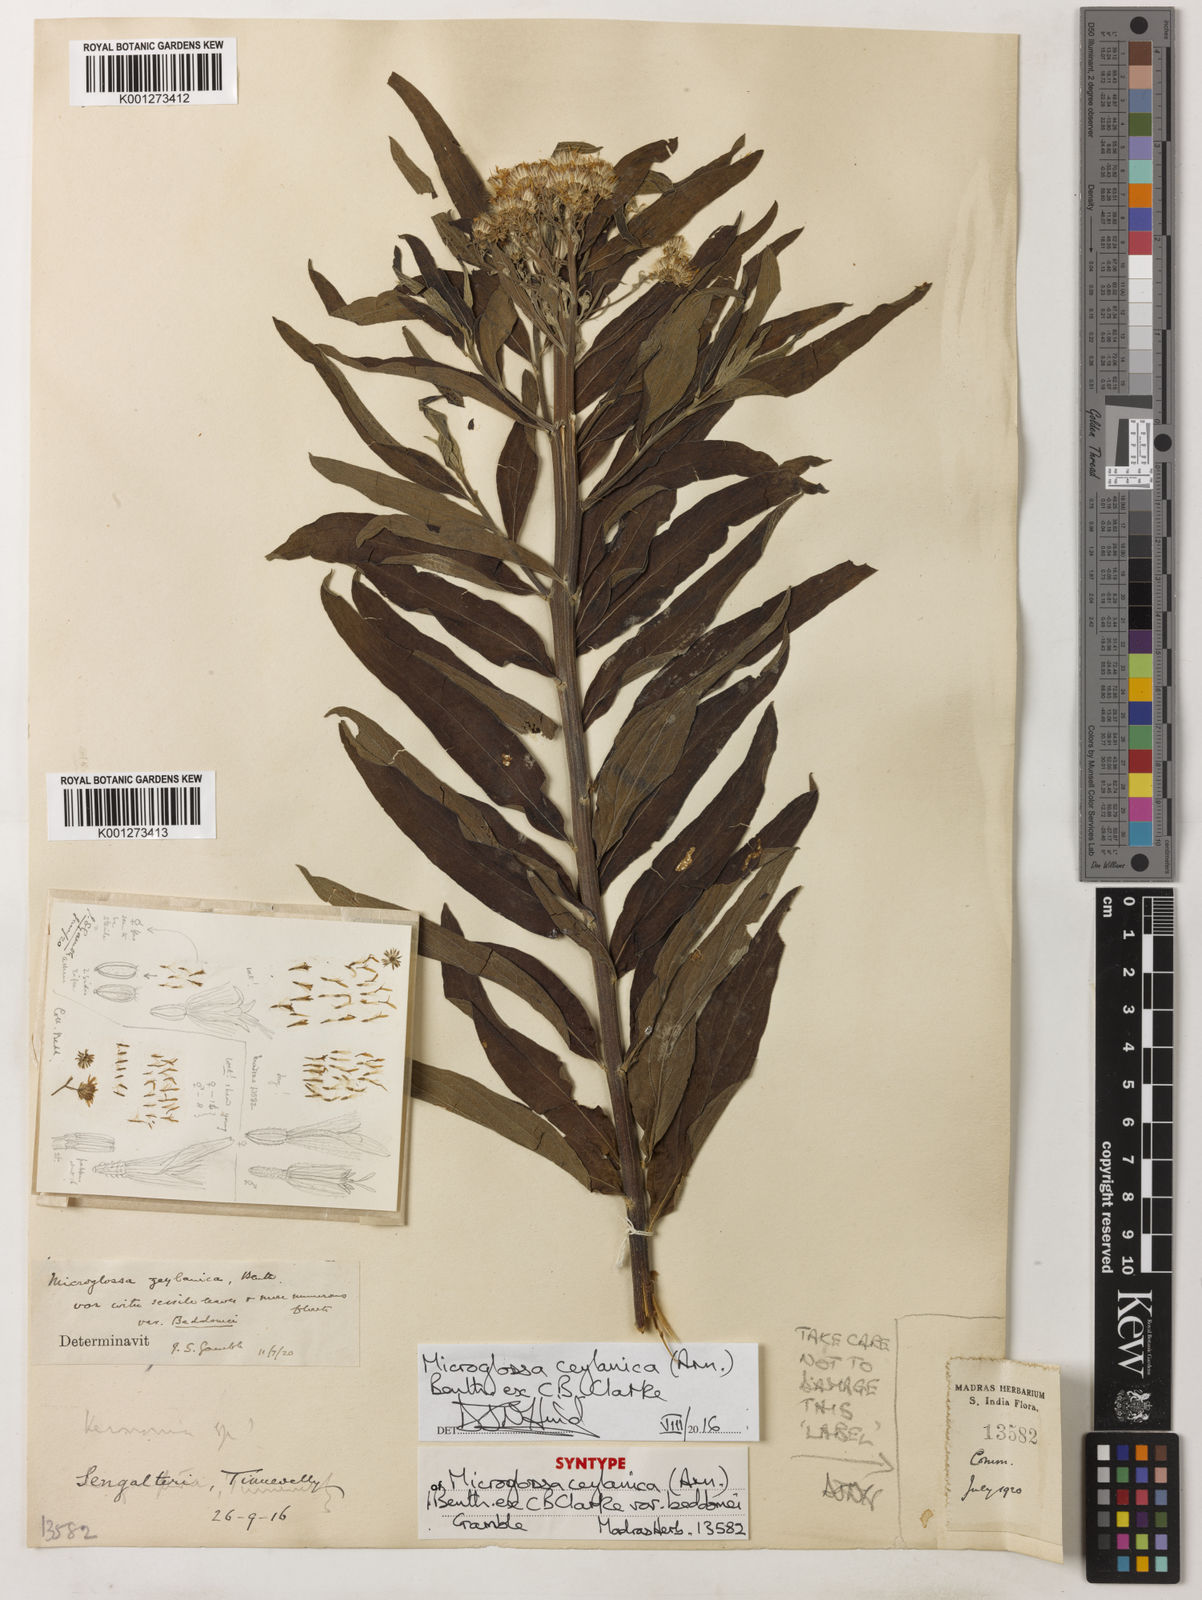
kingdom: Plantae
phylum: Tracheophyta
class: Magnoliopsida
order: Asterales
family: Asteraceae
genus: Psiadia
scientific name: Psiadia ceylanica
